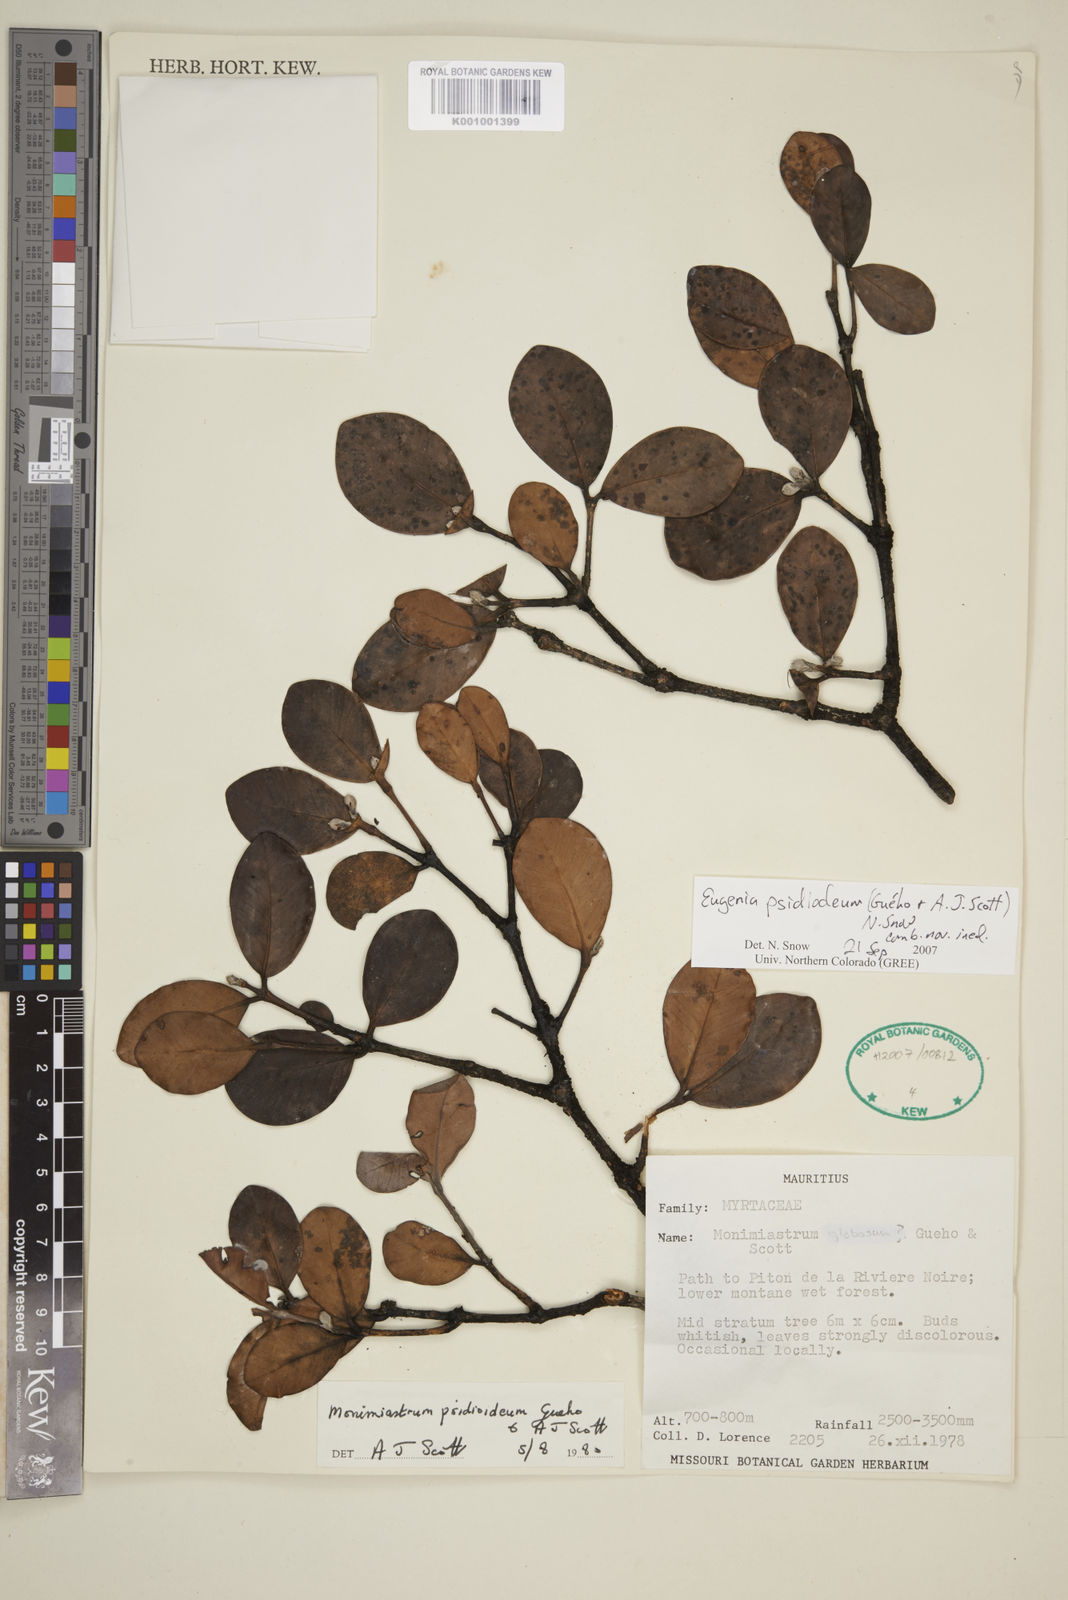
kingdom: Plantae
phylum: Tracheophyta
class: Magnoliopsida
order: Myrtales
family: Myrtaceae
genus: Eugenia
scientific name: Eugenia psidioidea
